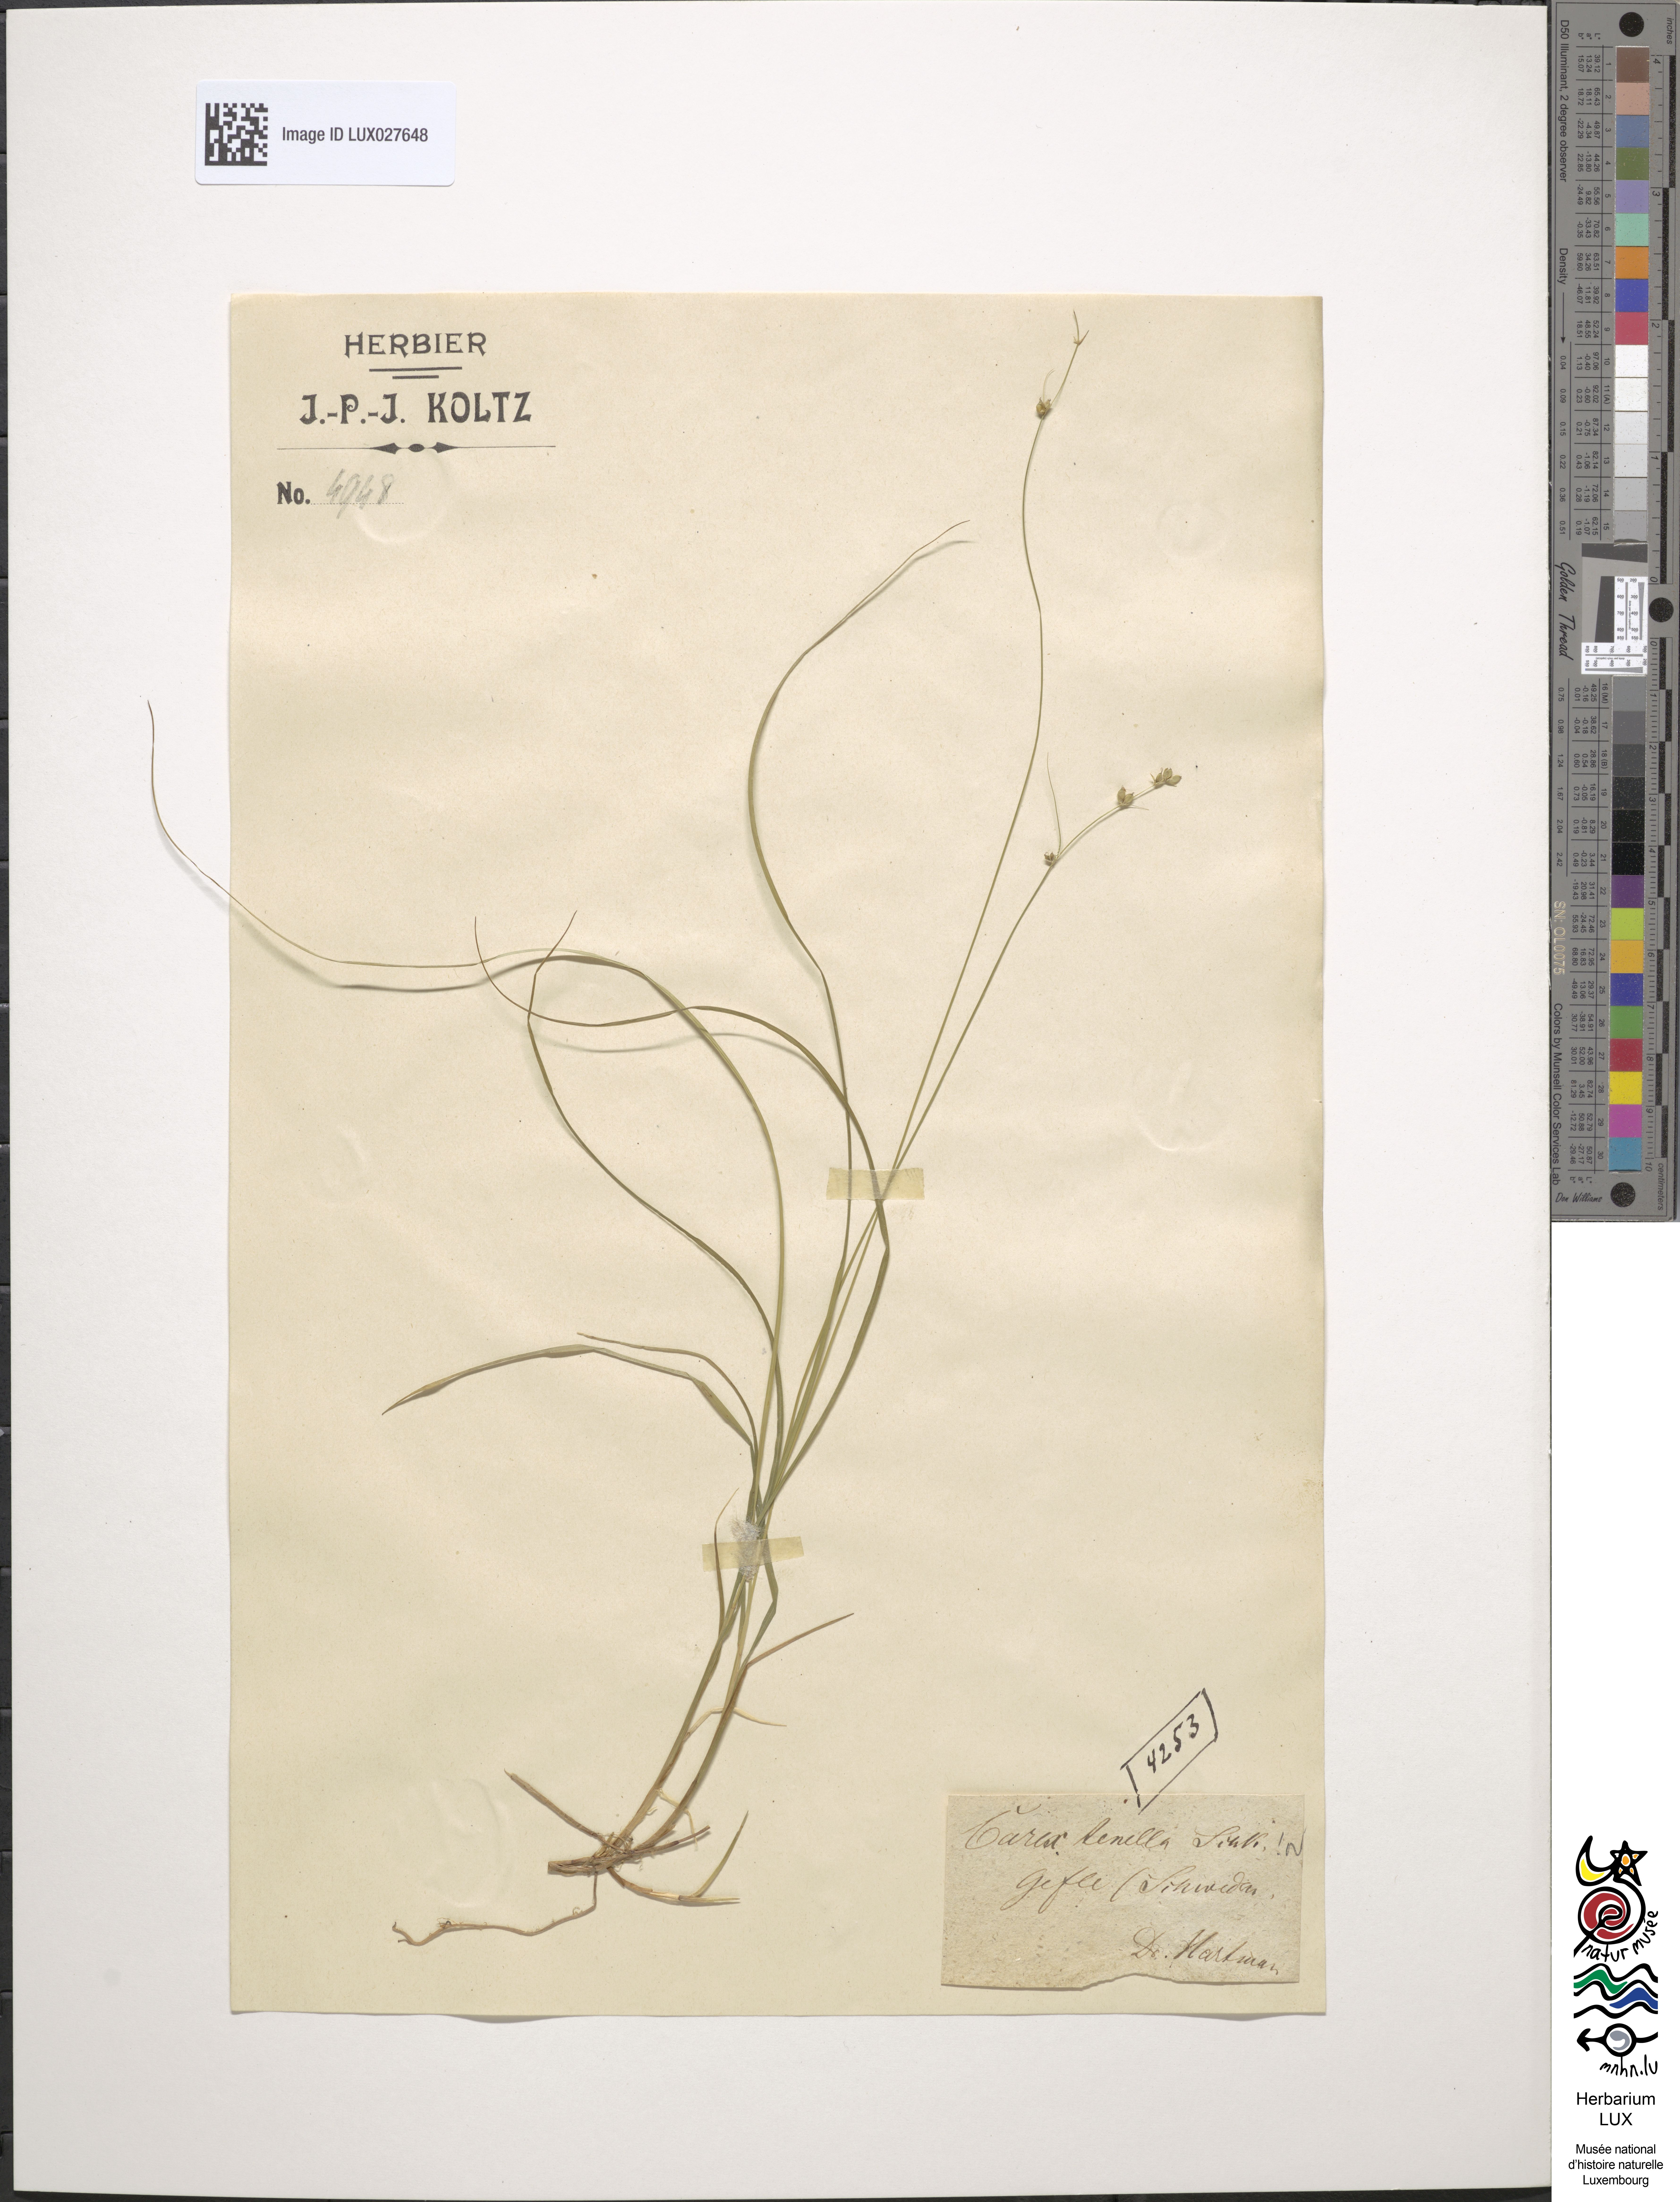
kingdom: Plantae
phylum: Tracheophyta
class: Liliopsida
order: Poales
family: Cyperaceae
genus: Carex
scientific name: Carex disperma
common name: Short-leaved sedge
